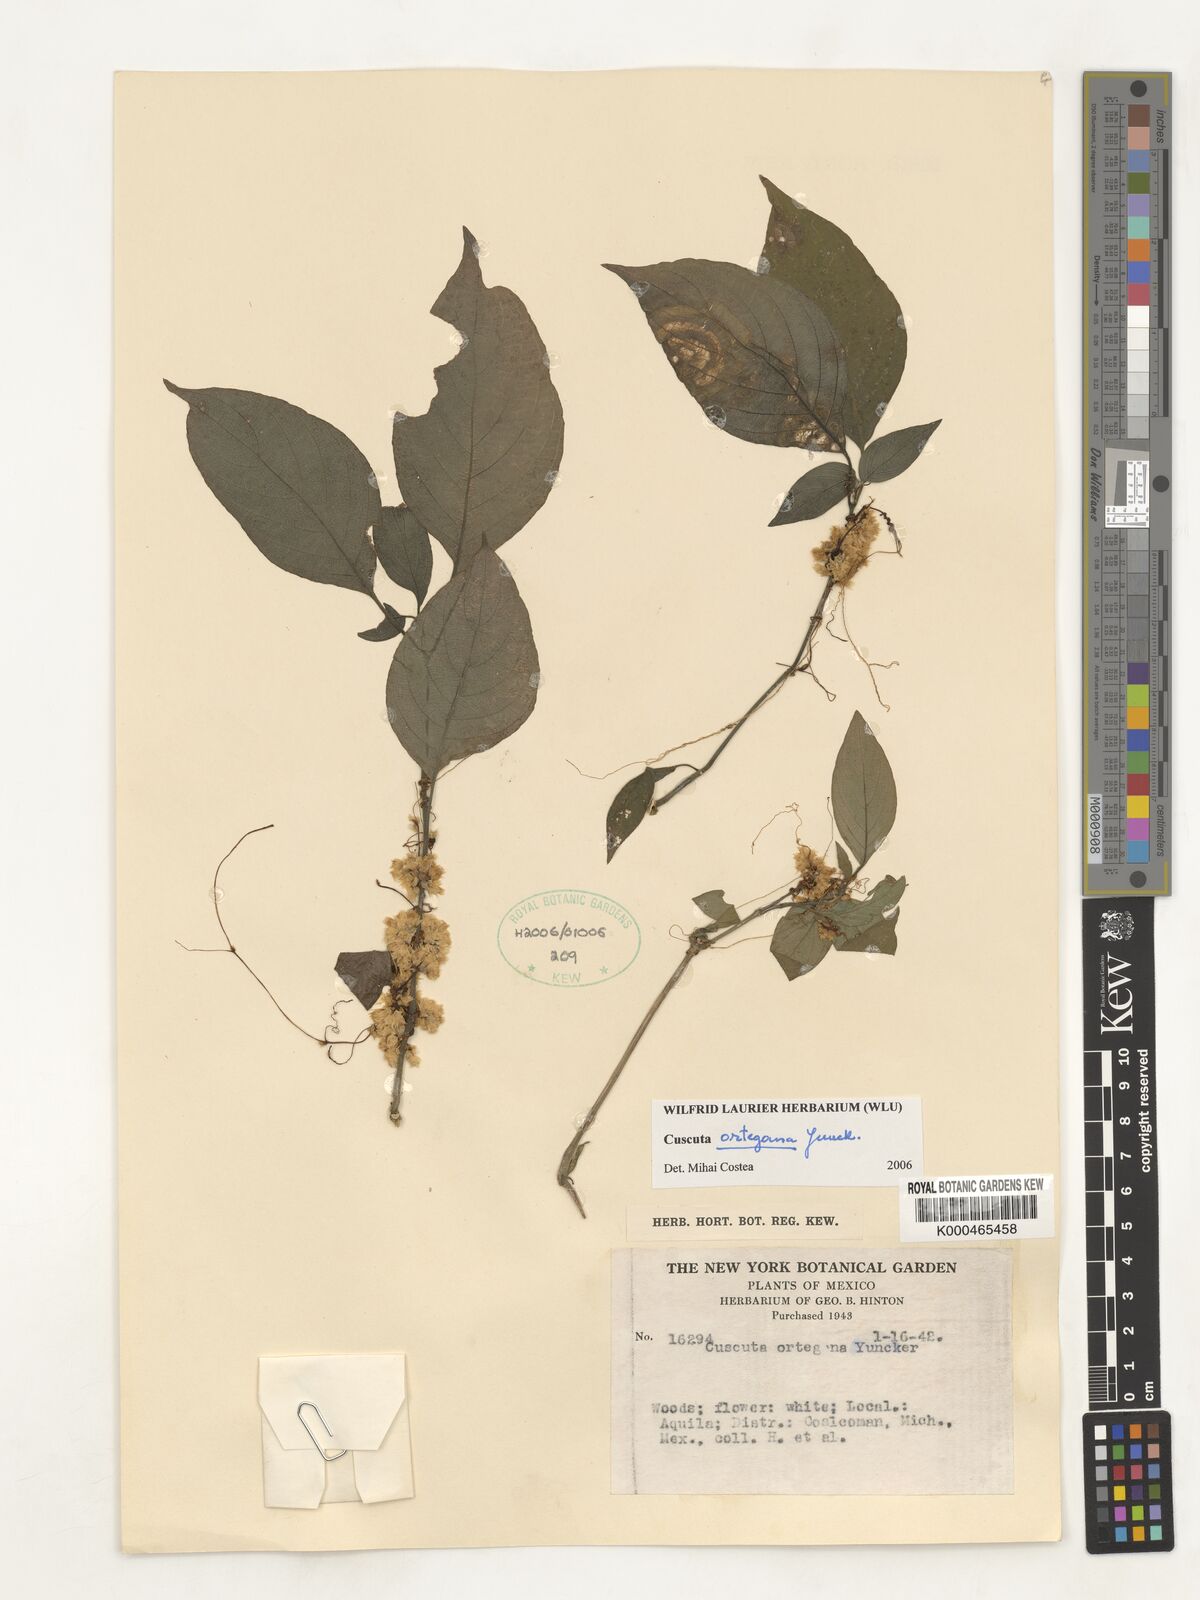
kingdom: Plantae
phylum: Tracheophyta
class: Magnoliopsida
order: Solanales
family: Convolvulaceae
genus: Cuscuta
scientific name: Cuscuta ortegana
